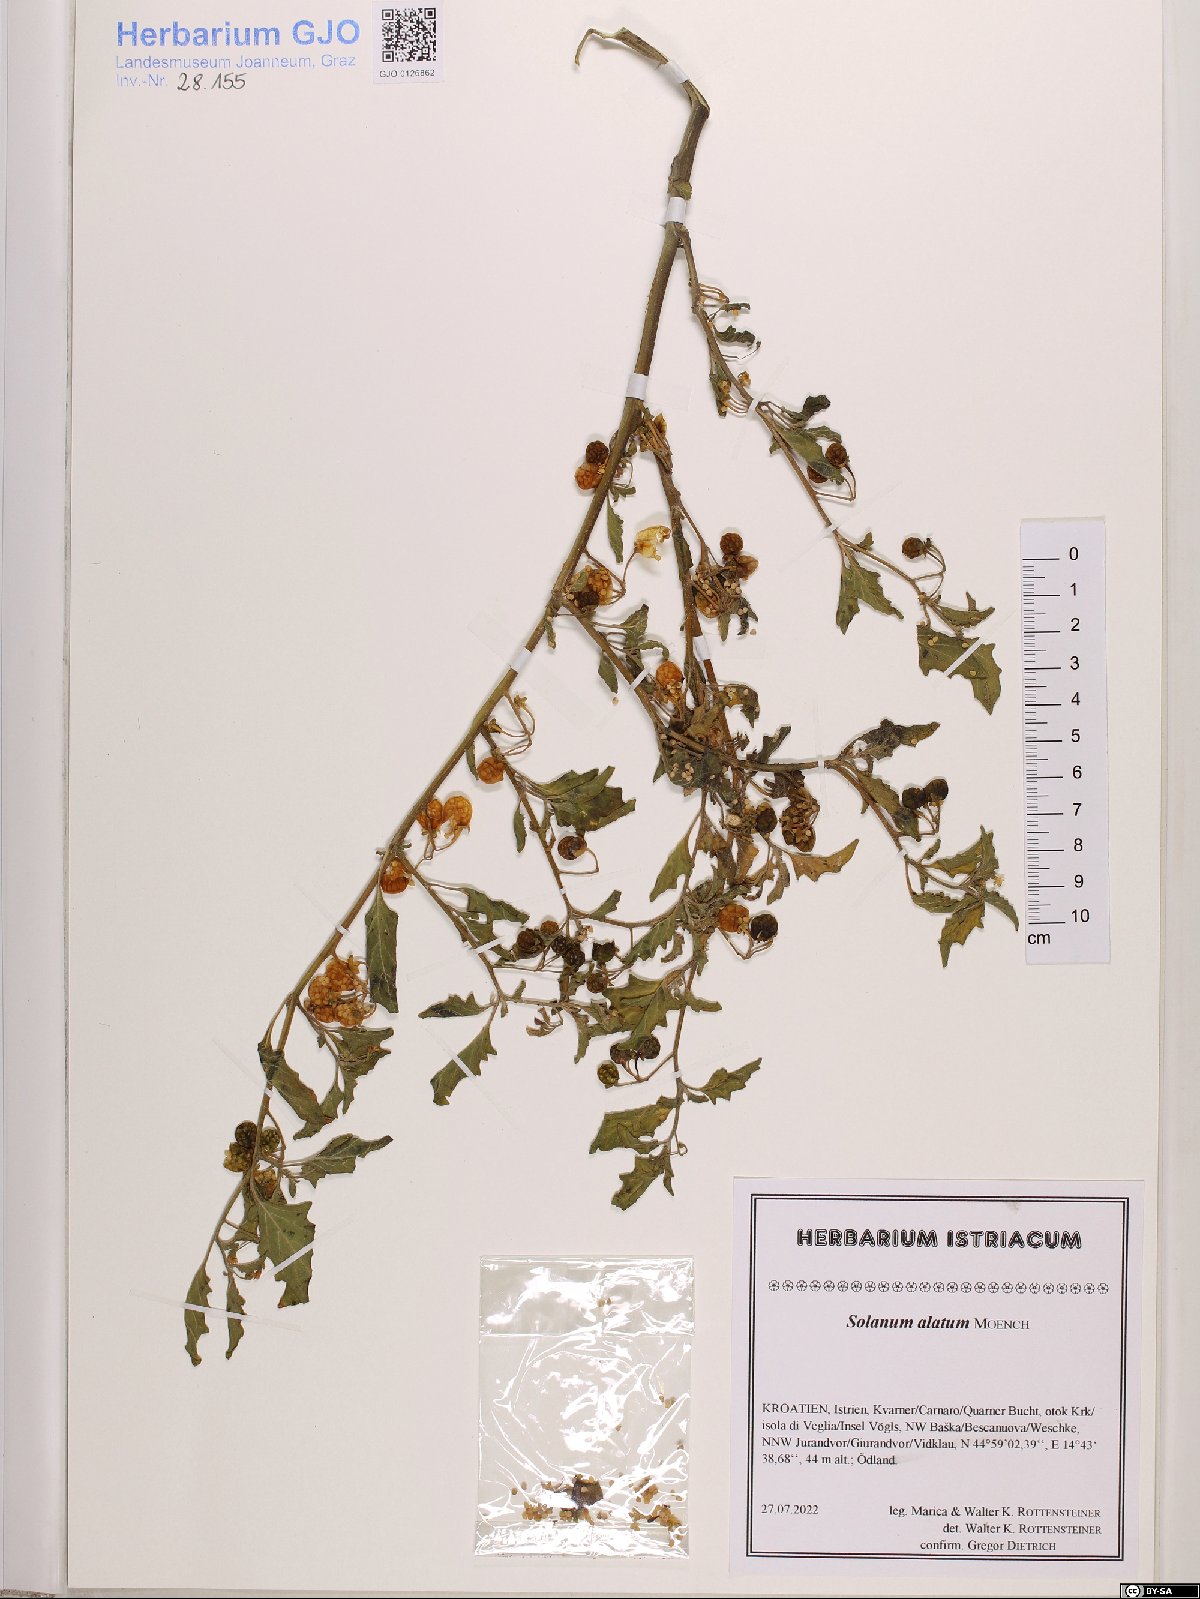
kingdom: Plantae
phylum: Tracheophyta
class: Magnoliopsida
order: Solanales
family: Solanaceae
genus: Solanum
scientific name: Solanum alatum
